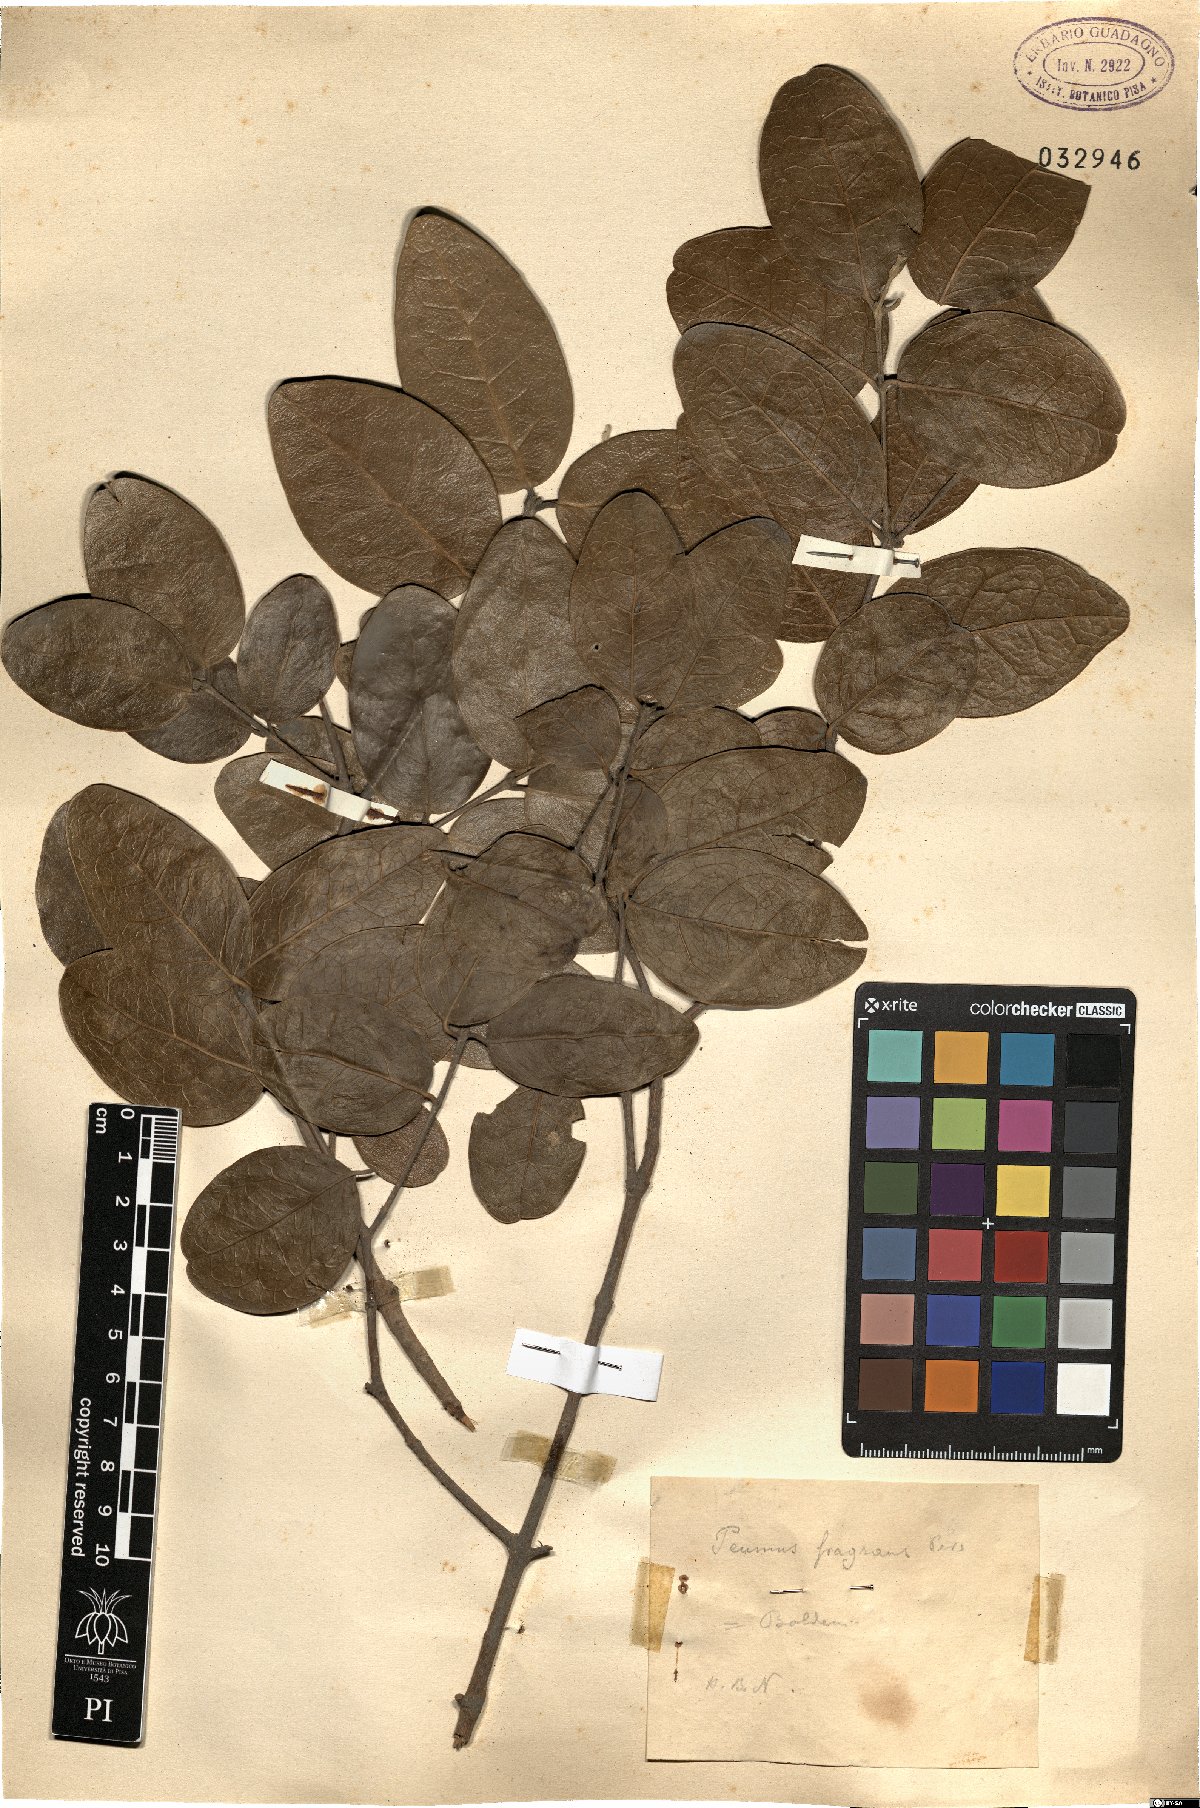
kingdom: Plantae
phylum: Tracheophyta
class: Magnoliopsida
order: Laurales
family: Monimiaceae
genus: Peumus
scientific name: Peumus boldus
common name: Boldo
